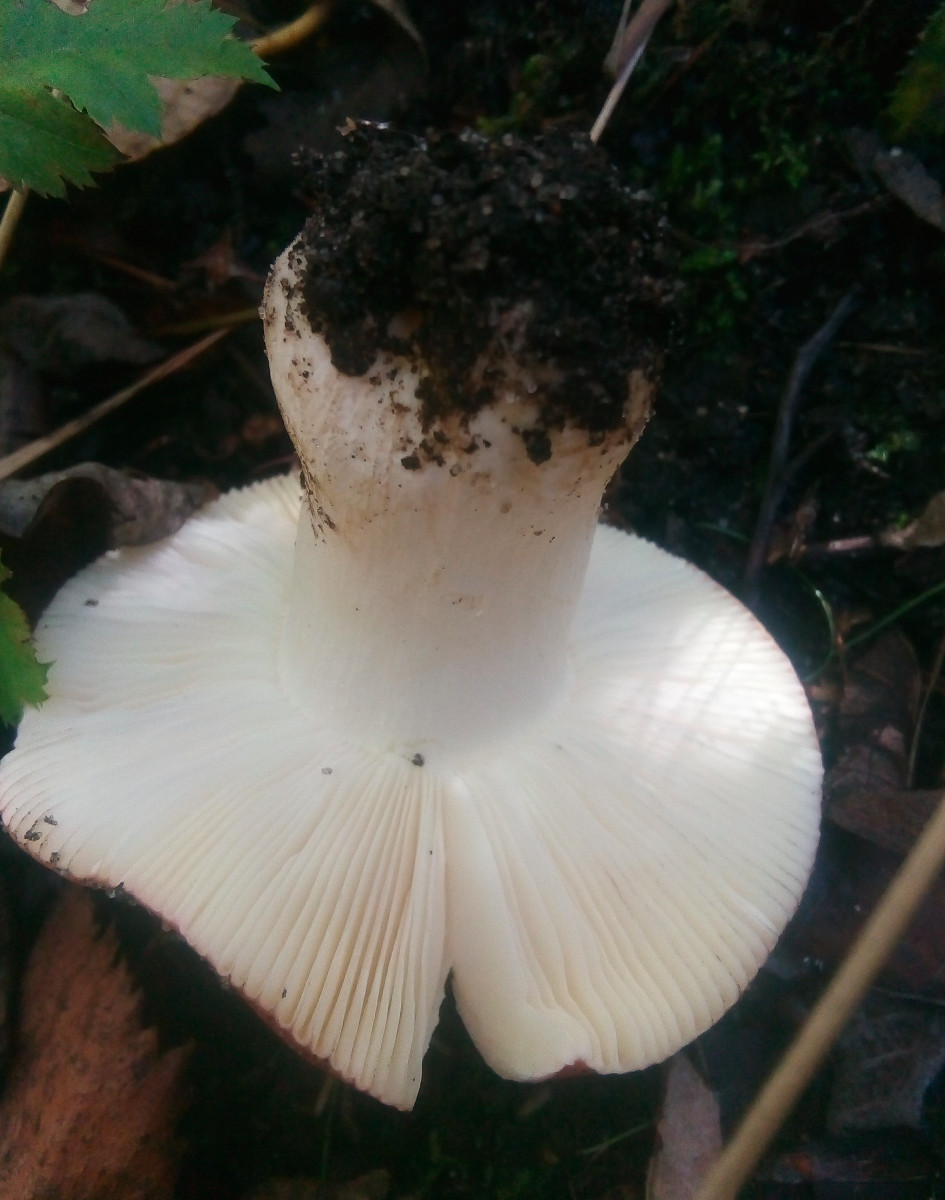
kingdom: Fungi
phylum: Basidiomycota
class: Agaricomycetes
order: Russulales
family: Russulaceae
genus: Russula
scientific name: Russula subrubens
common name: pile-skørhat
